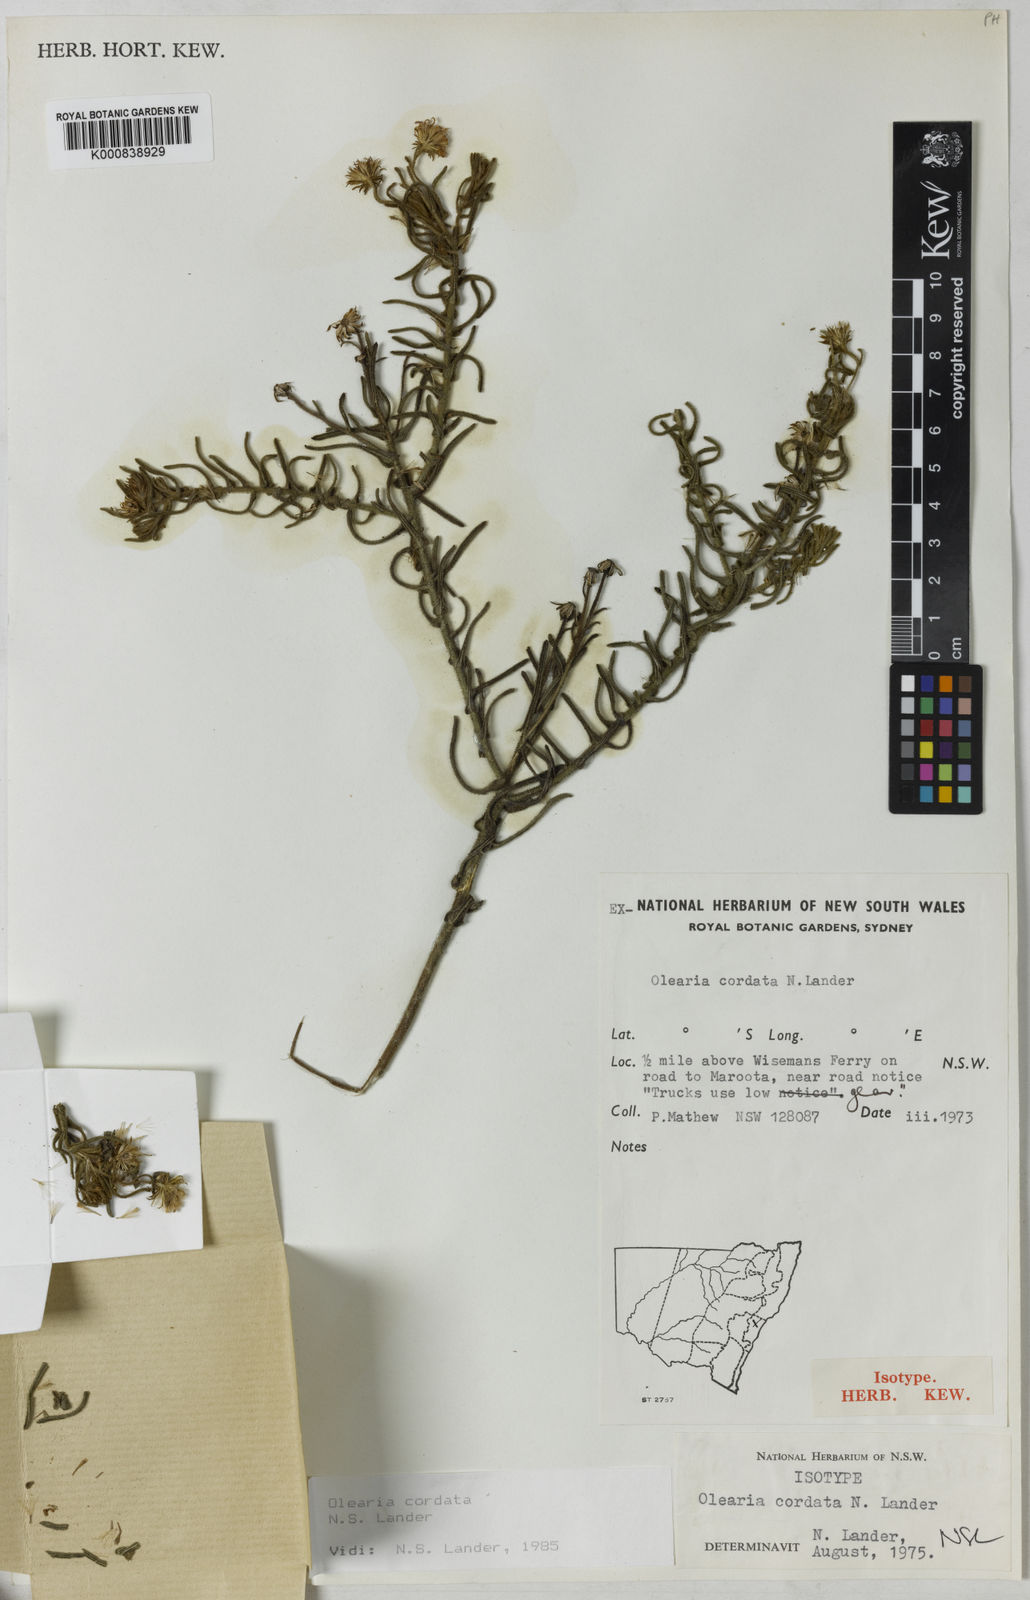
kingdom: Plantae
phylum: Tracheophyta
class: Magnoliopsida
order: Asterales
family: Asteraceae
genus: Wollemiaster
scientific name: Wollemiaster cordatus
